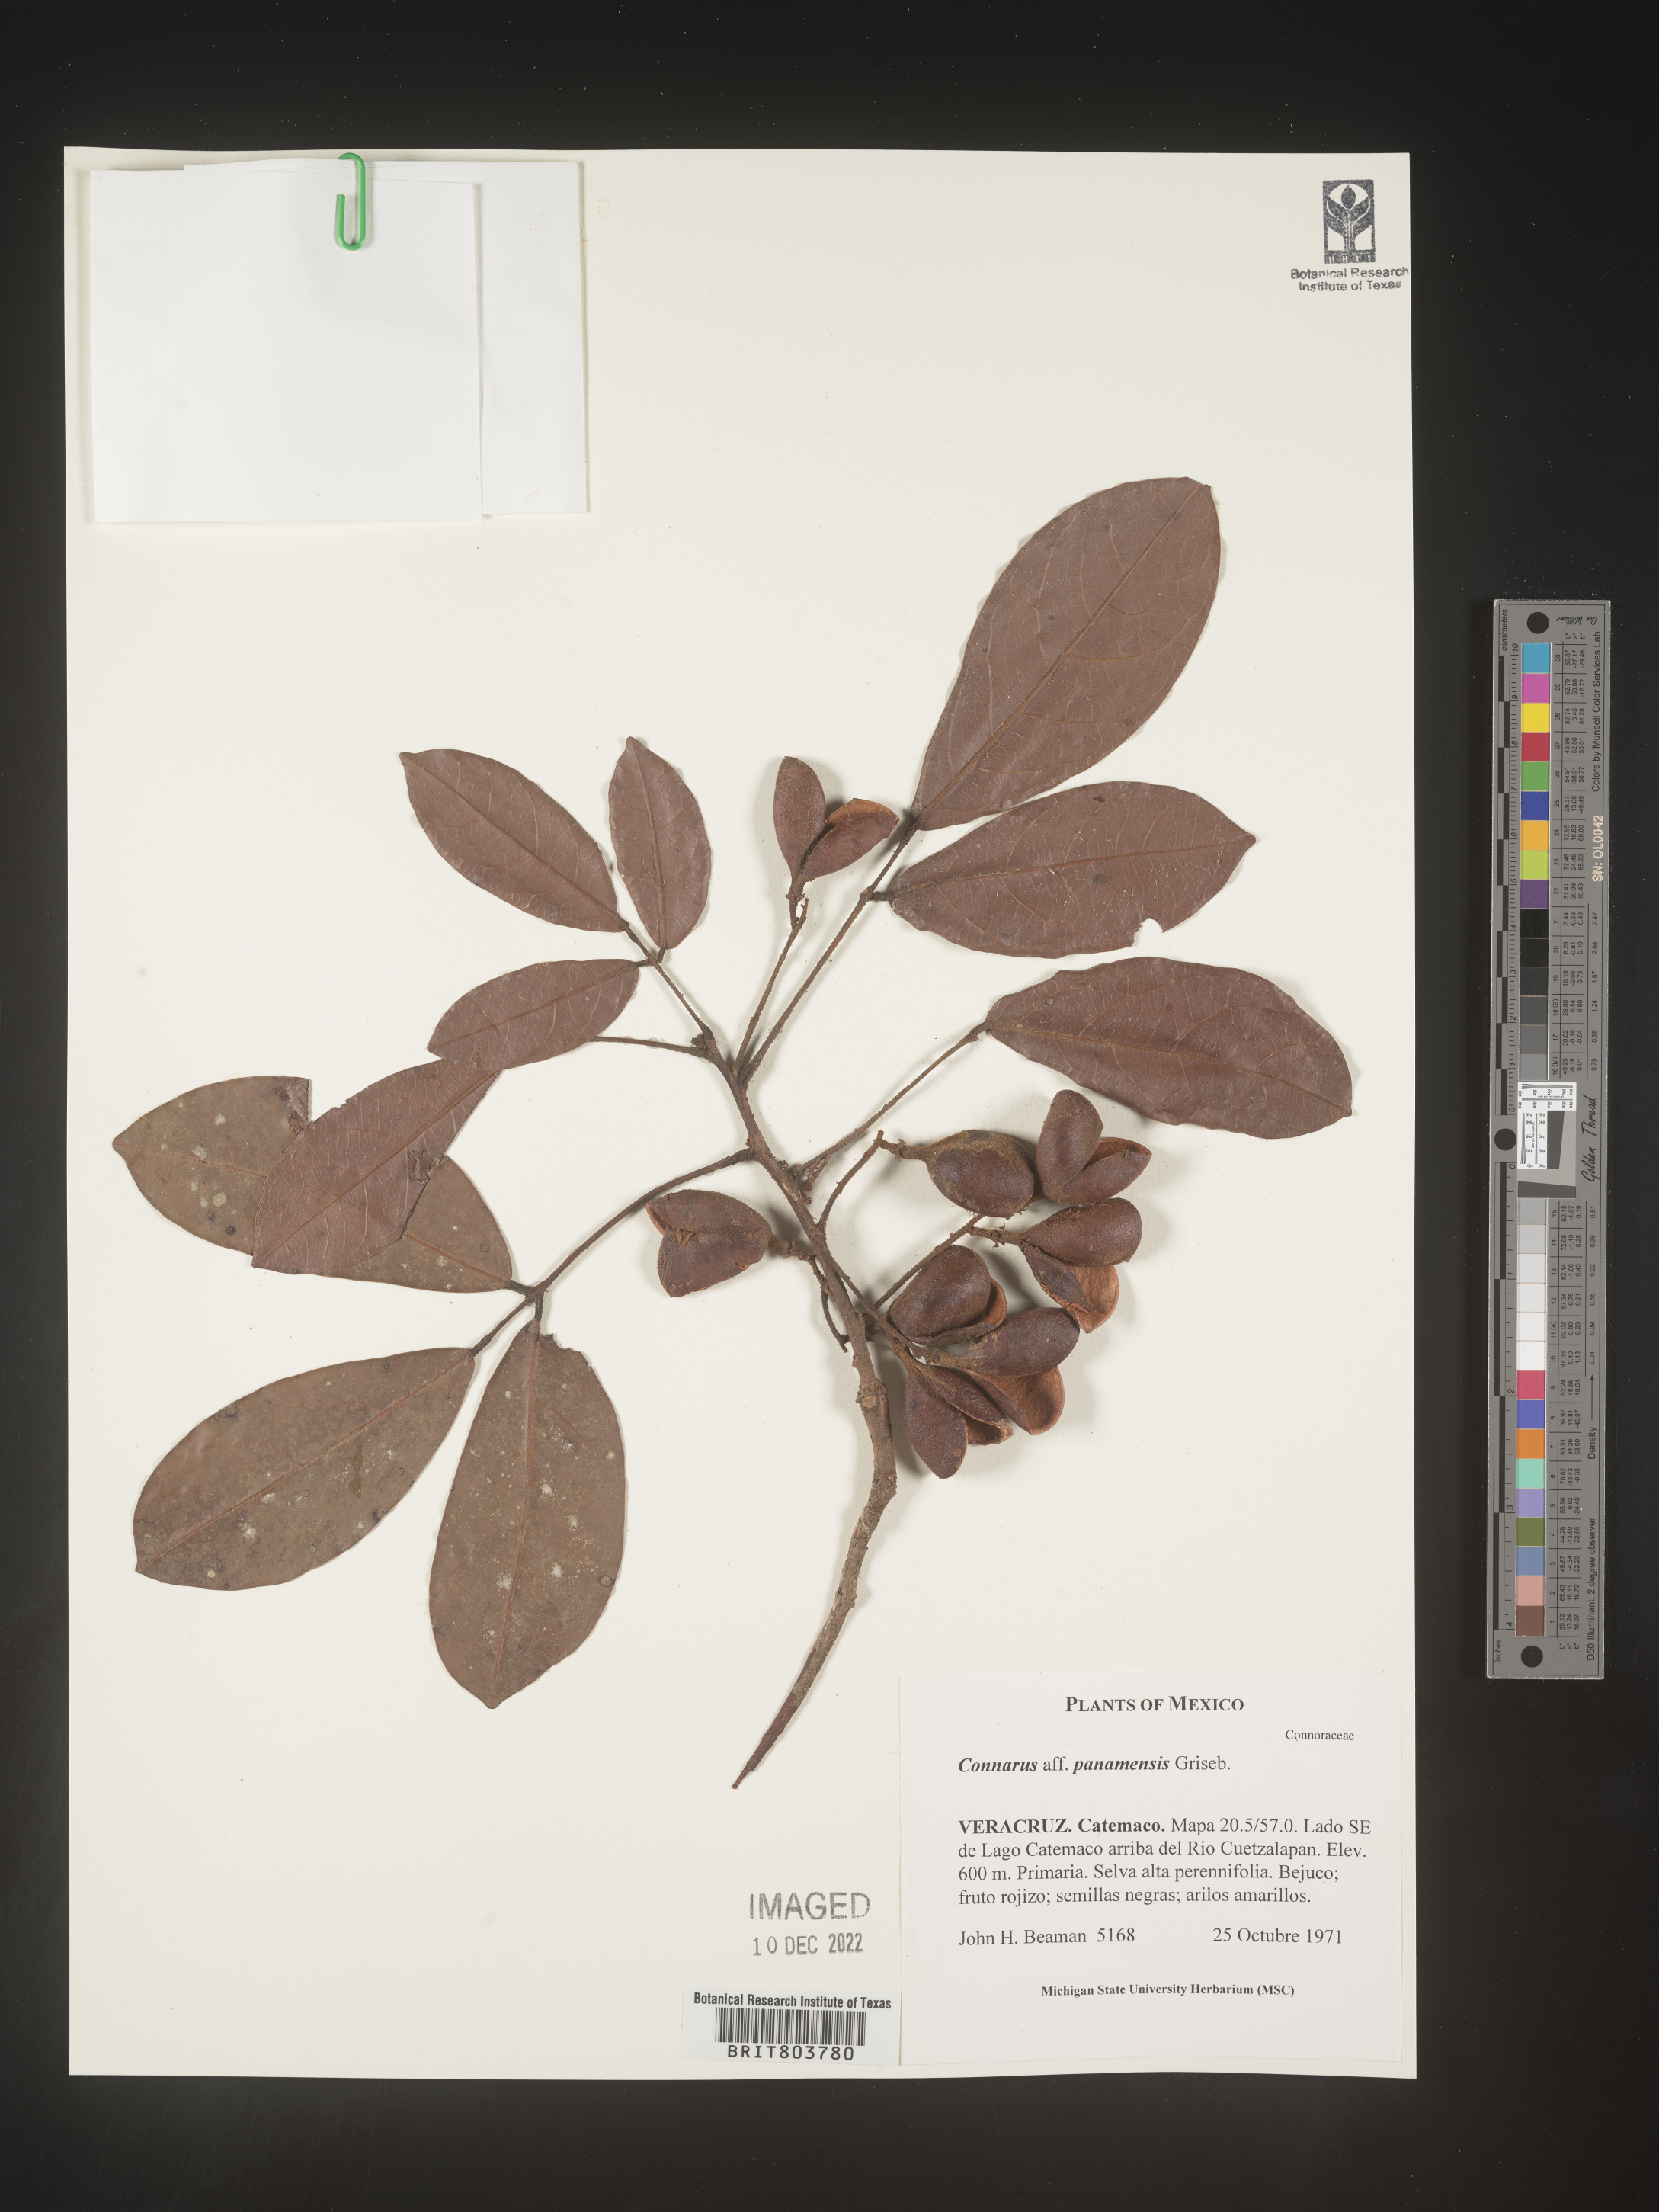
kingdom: Plantae
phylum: Tracheophyta
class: Magnoliopsida
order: Oxalidales
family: Connaraceae
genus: Connarus
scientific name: Connarus
